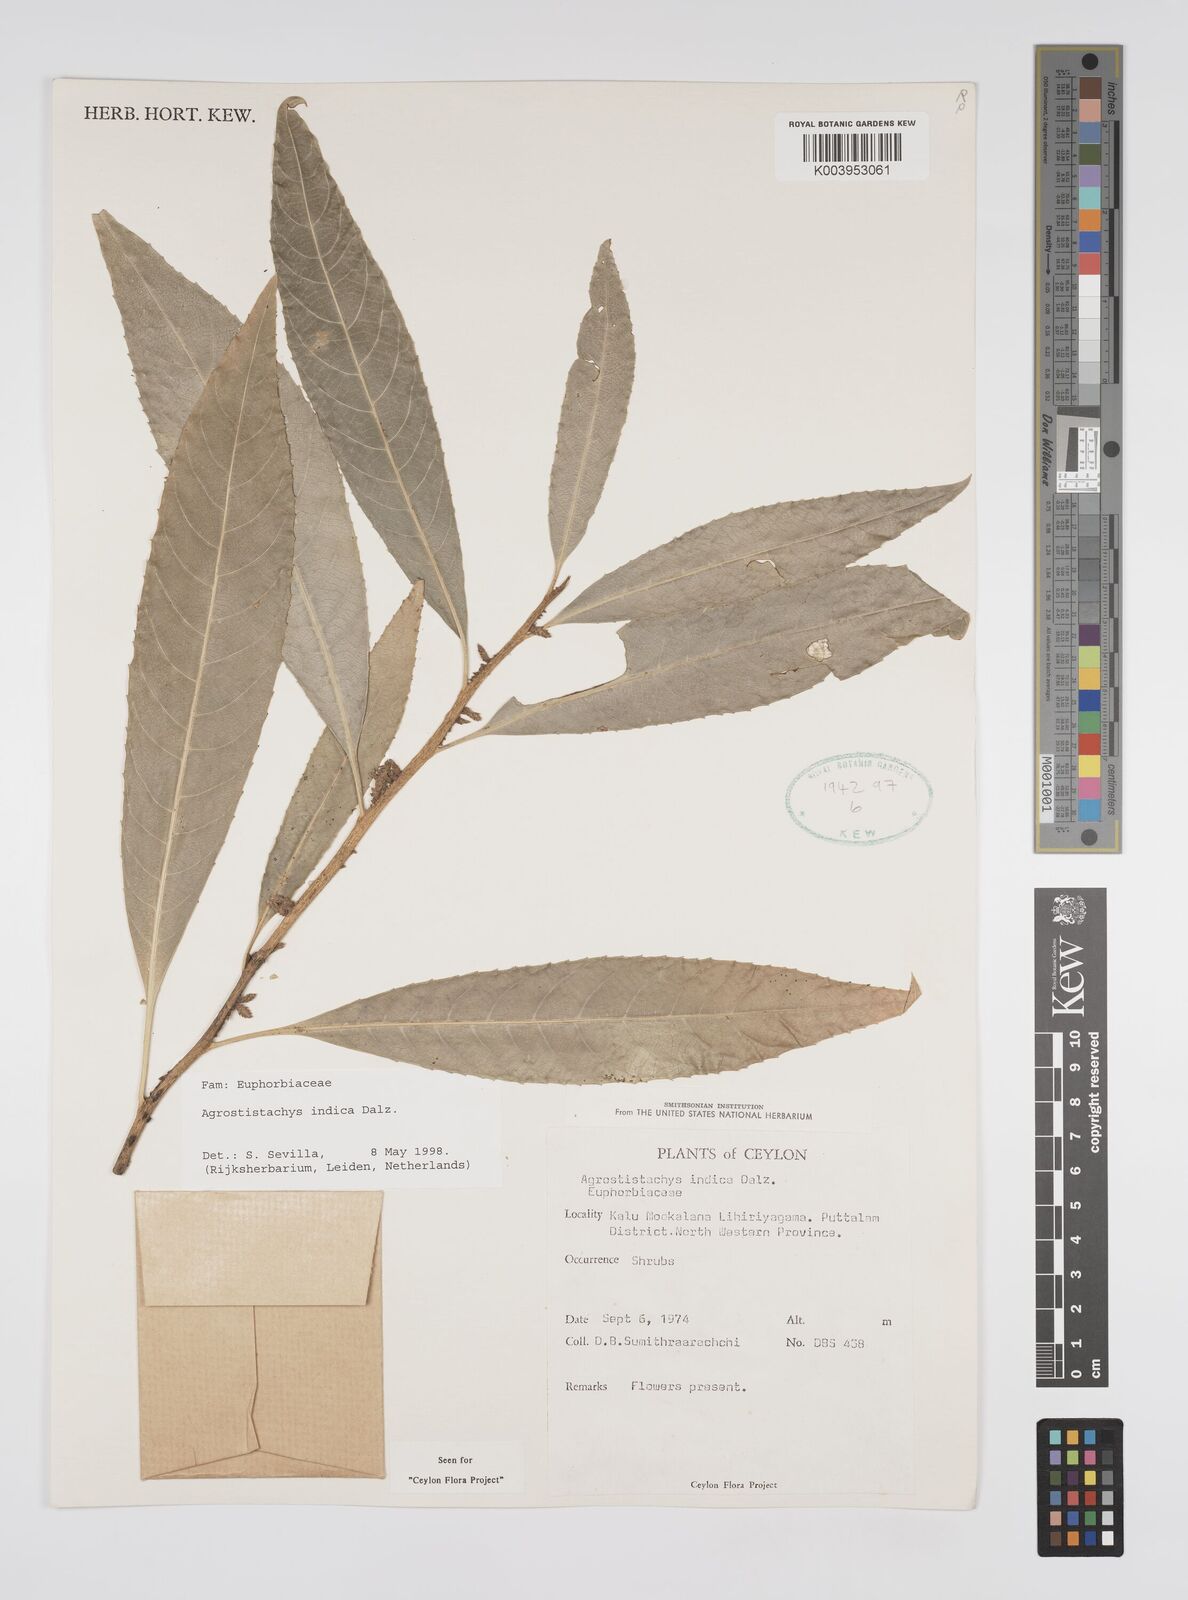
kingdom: Plantae
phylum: Tracheophyta
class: Magnoliopsida
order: Malpighiales
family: Euphorbiaceae
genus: Agrostistachys
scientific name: Agrostistachys indica
